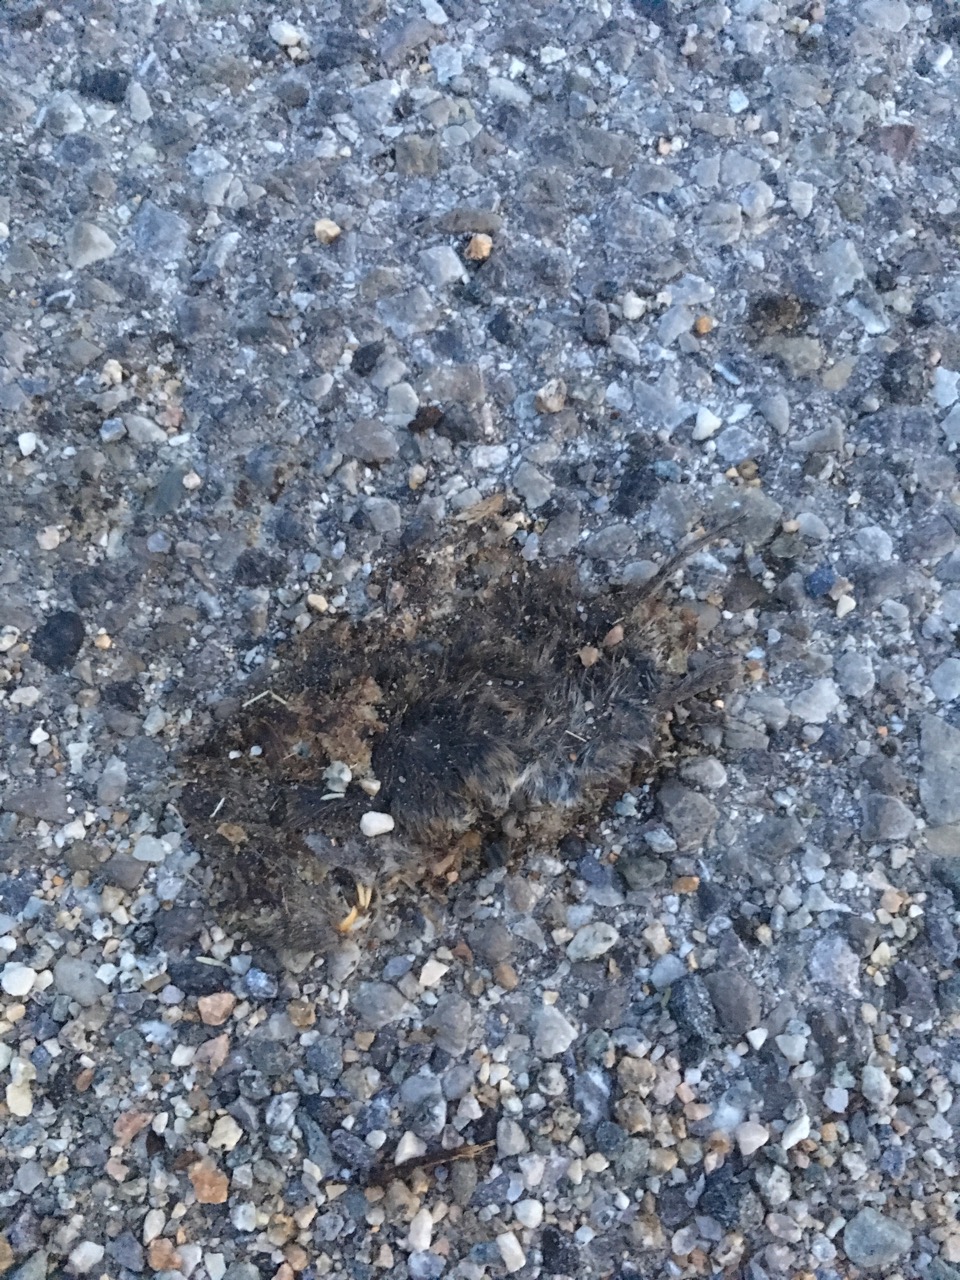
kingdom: Animalia
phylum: Chordata
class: Mammalia
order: Rodentia
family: Cricetidae
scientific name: Cricetidae
